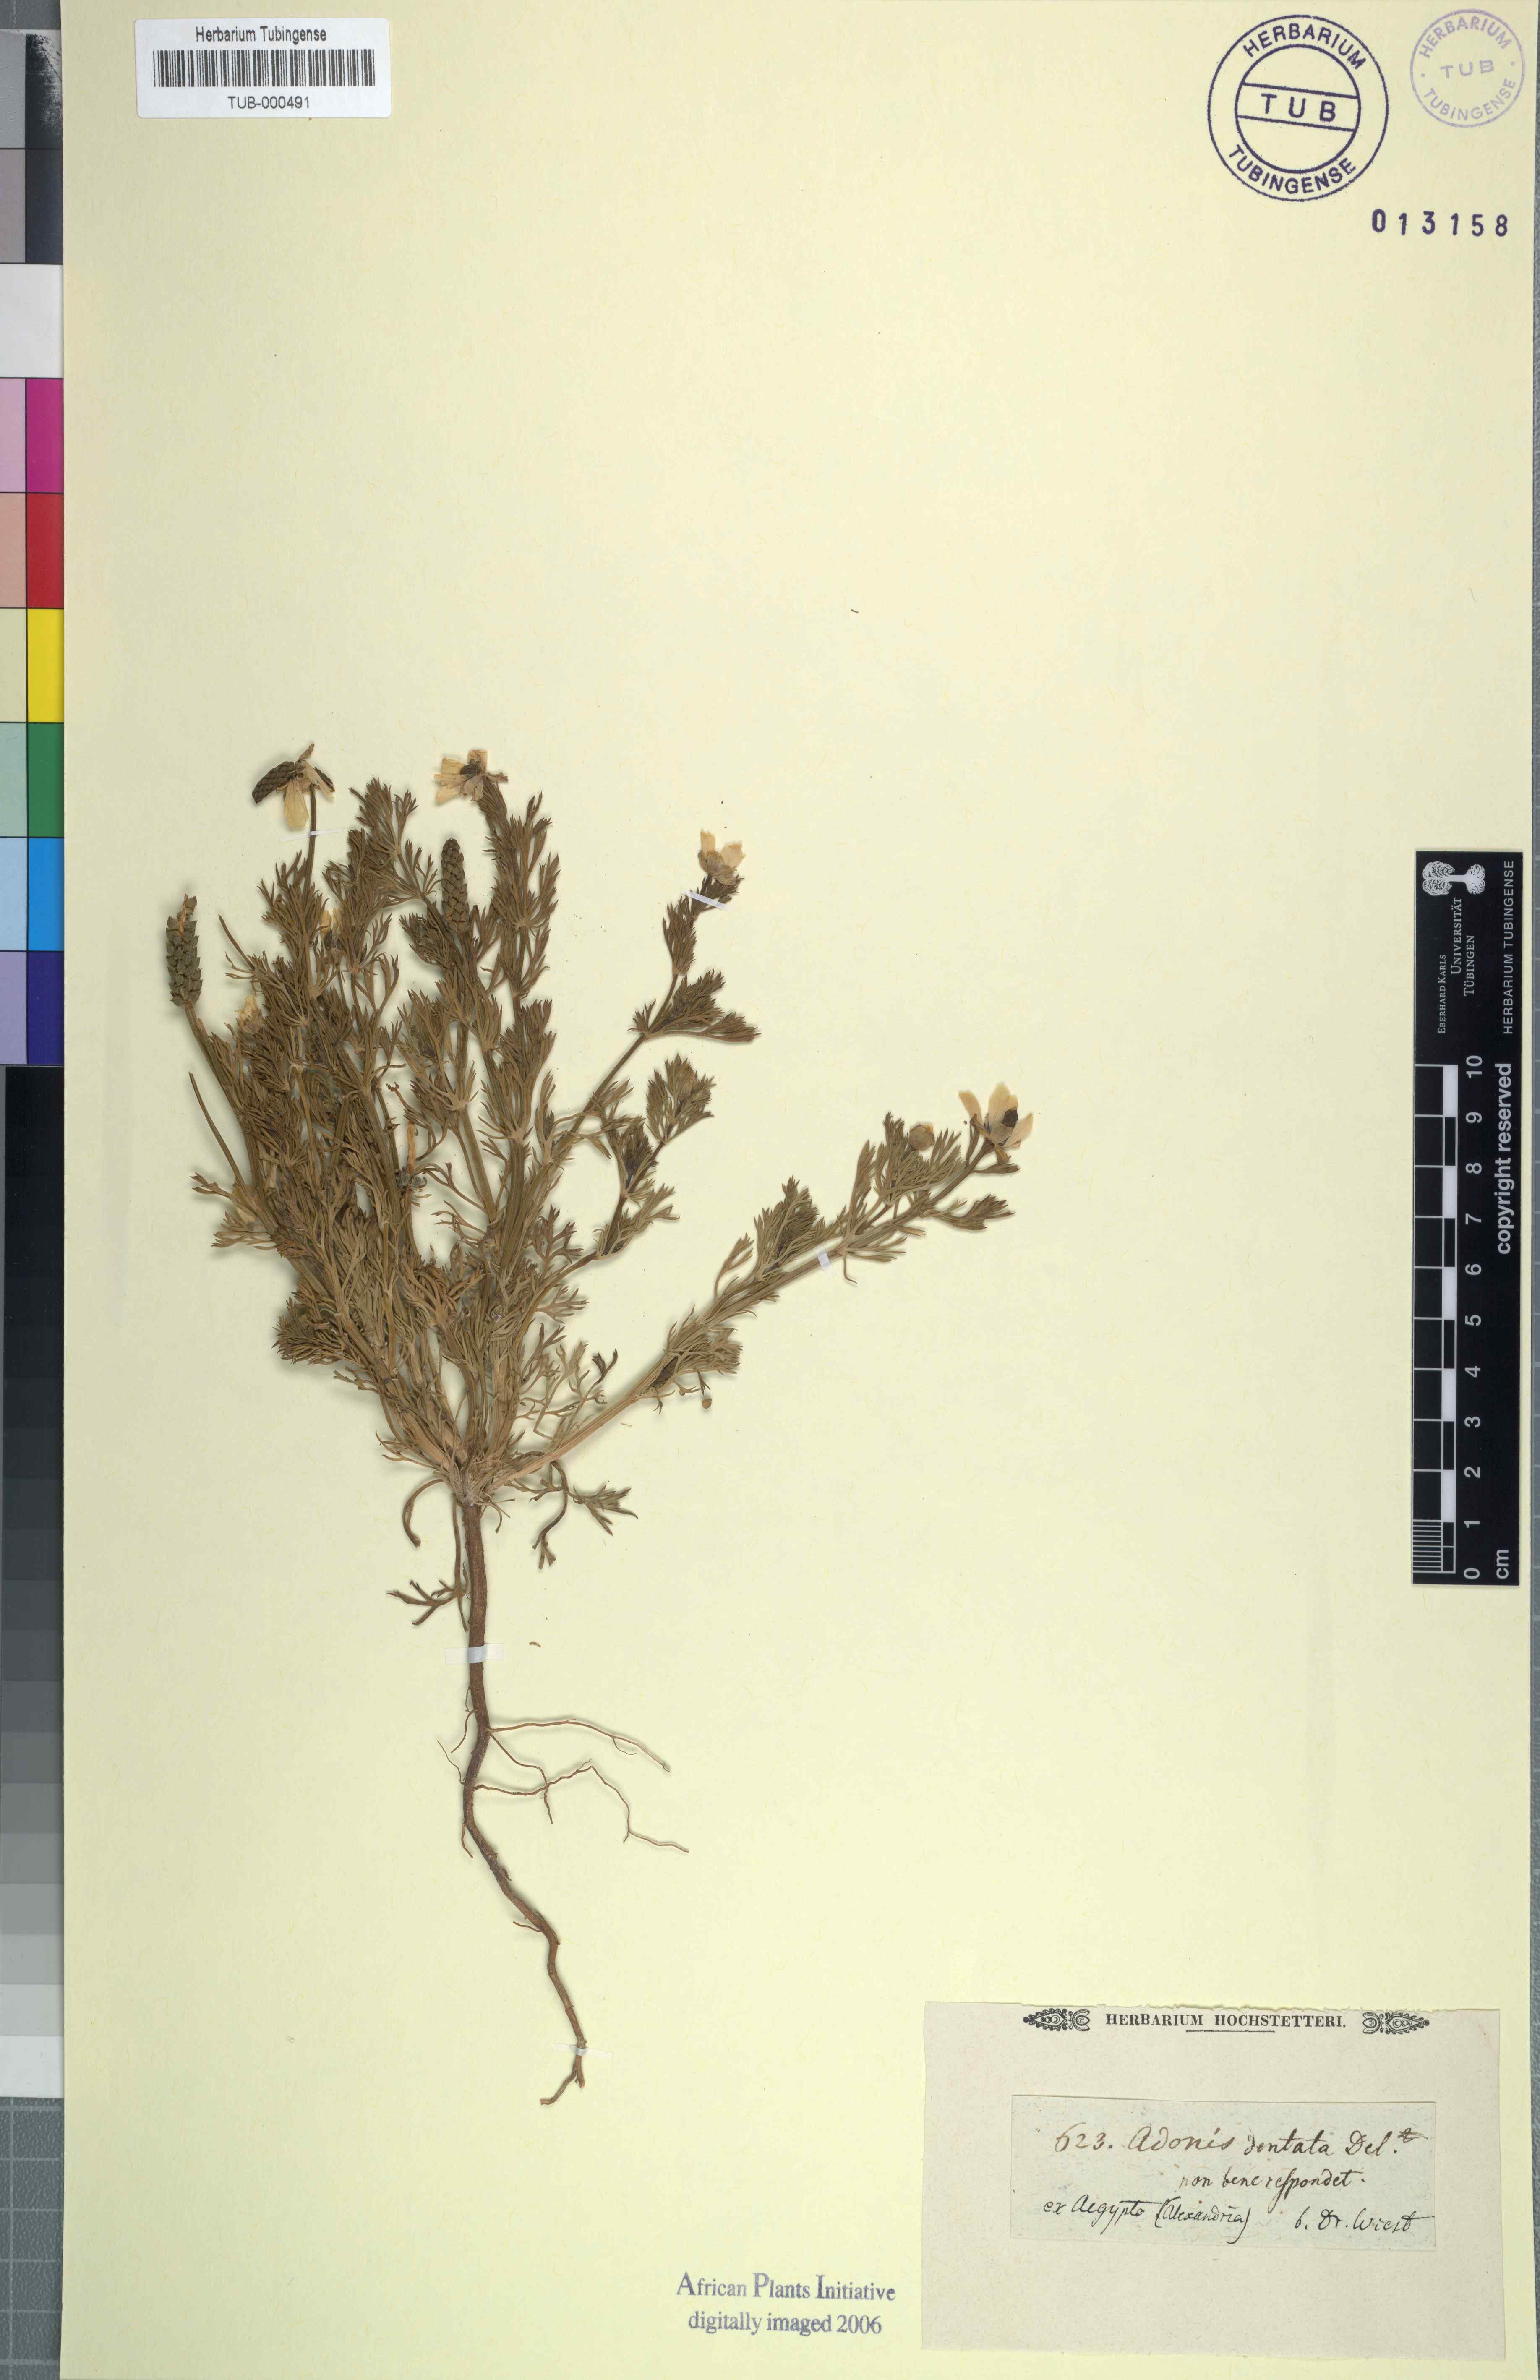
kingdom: Plantae
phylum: Tracheophyta
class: Magnoliopsida
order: Ranunculales
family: Ranunculaceae
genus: Adonis
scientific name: Adonis dentata
